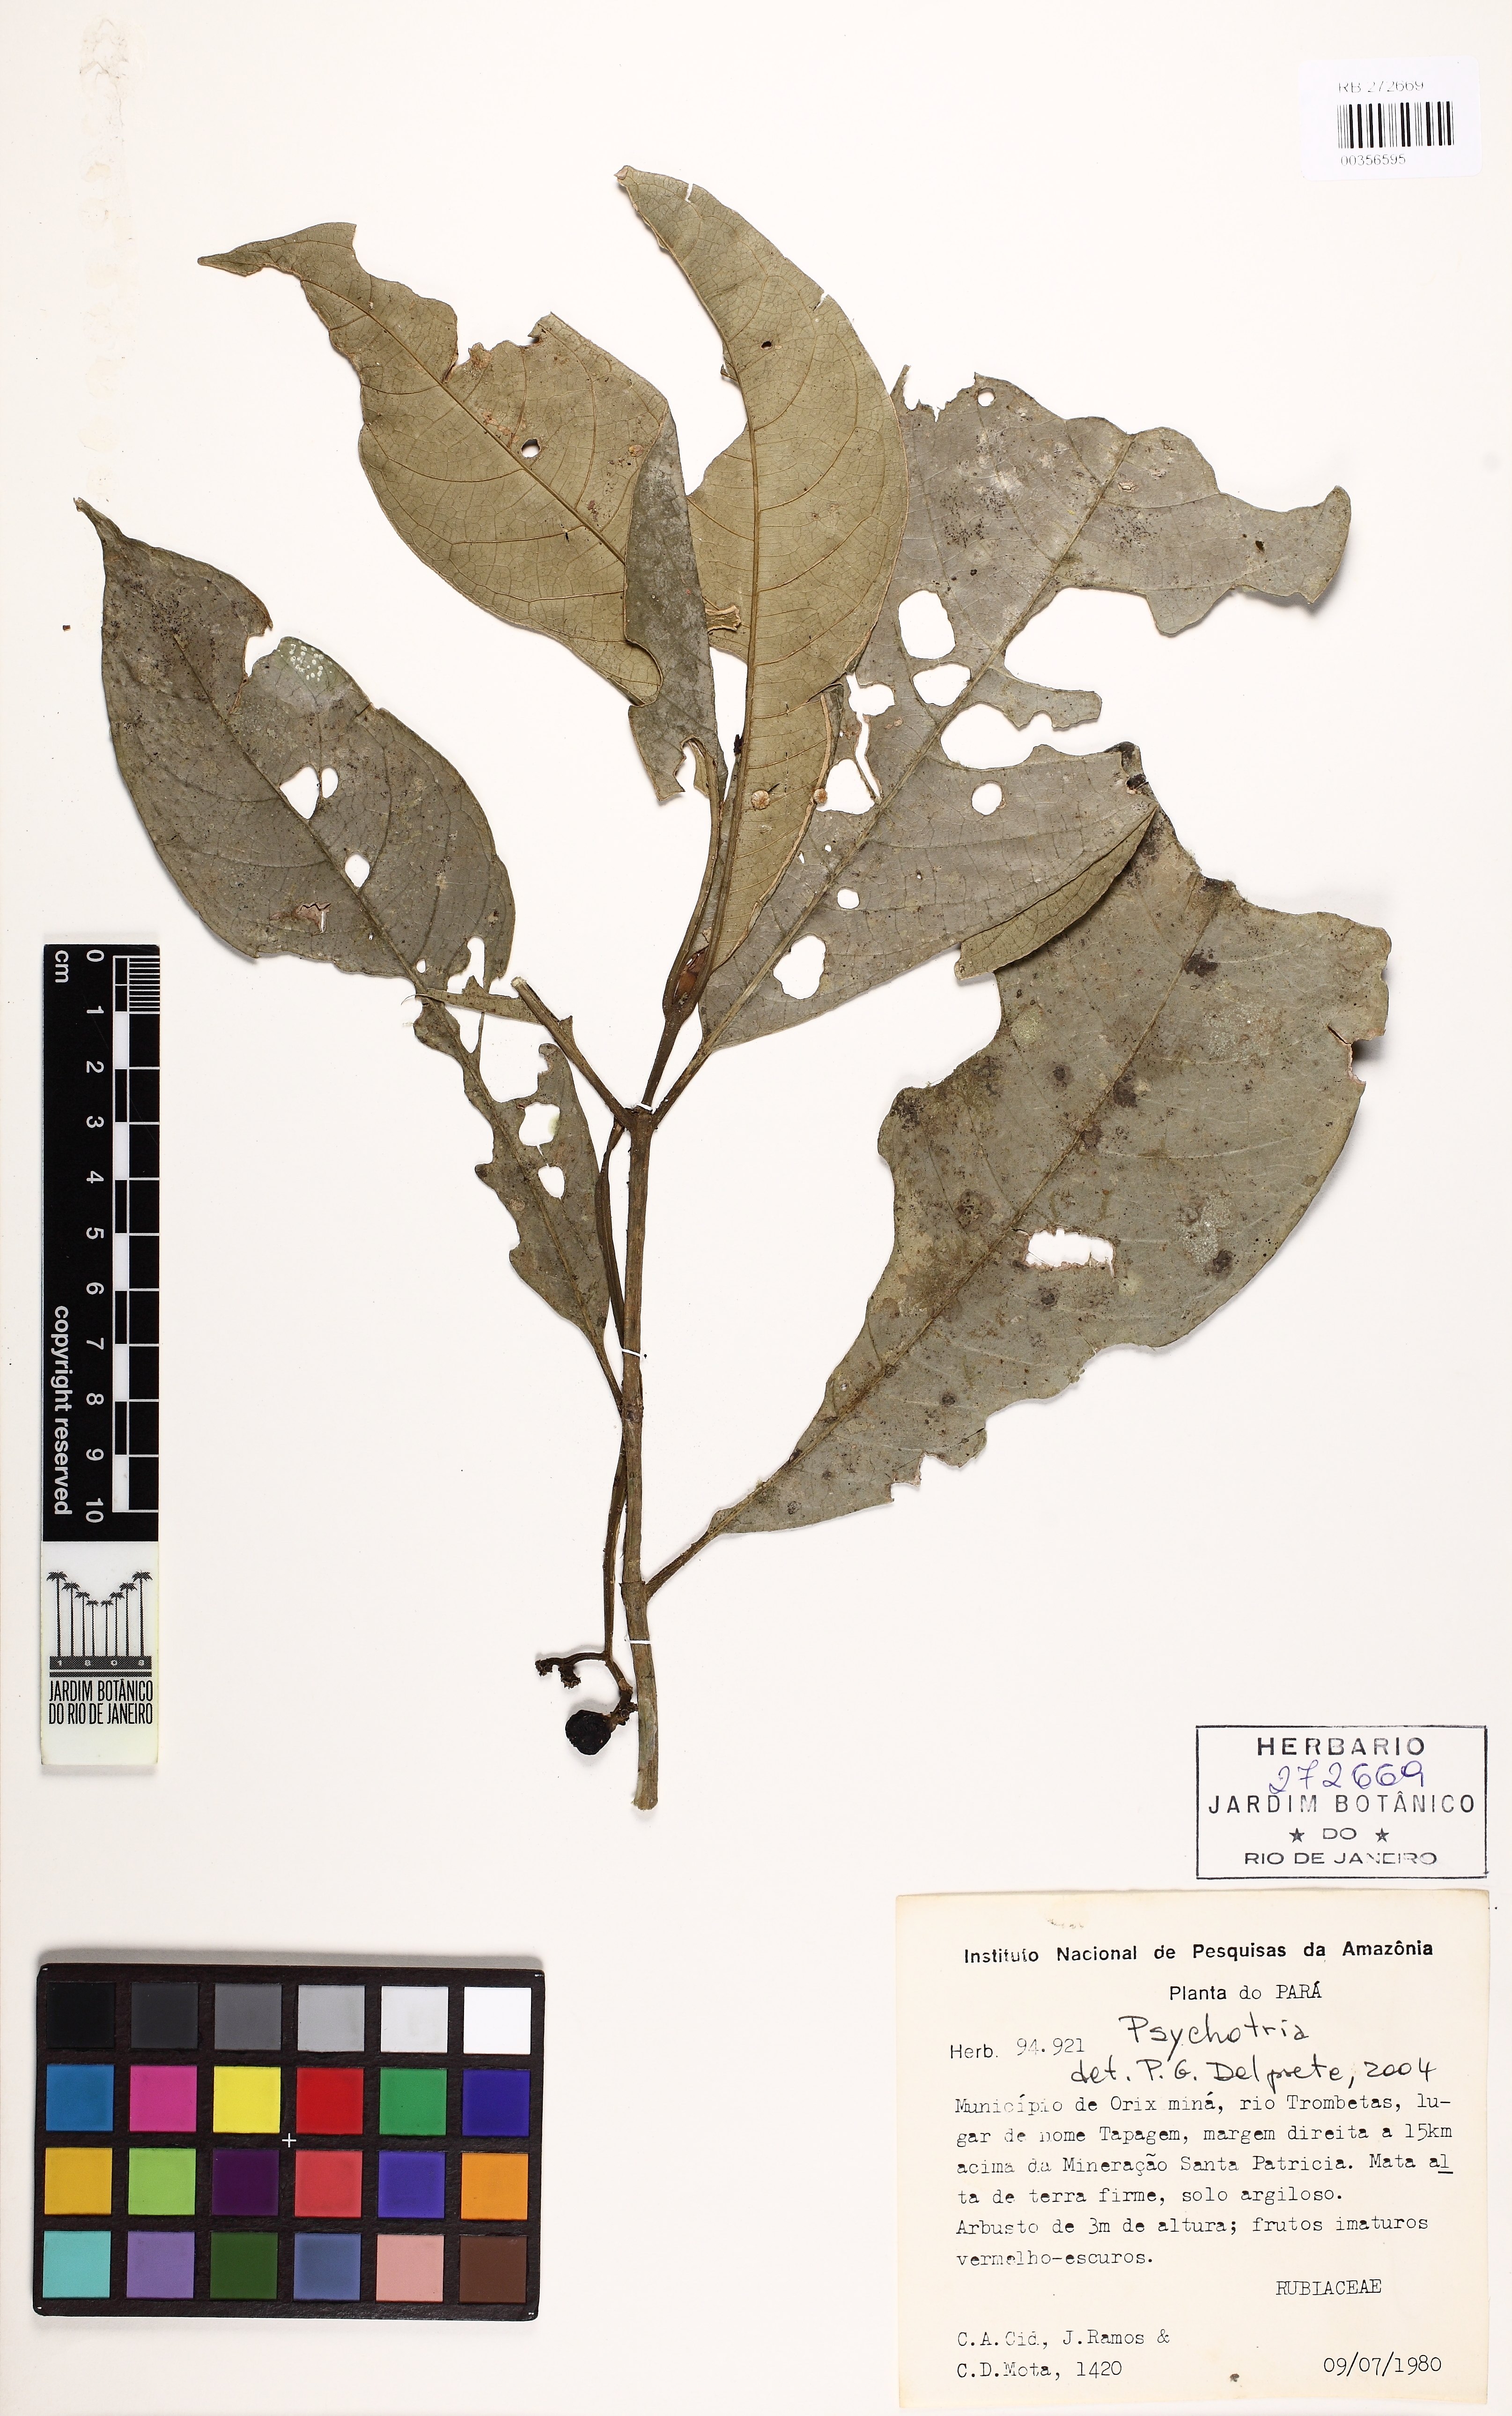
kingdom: Plantae
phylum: Tracheophyta
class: Magnoliopsida
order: Gentianales
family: Rubiaceae
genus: Psychotria
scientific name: Psychotria
